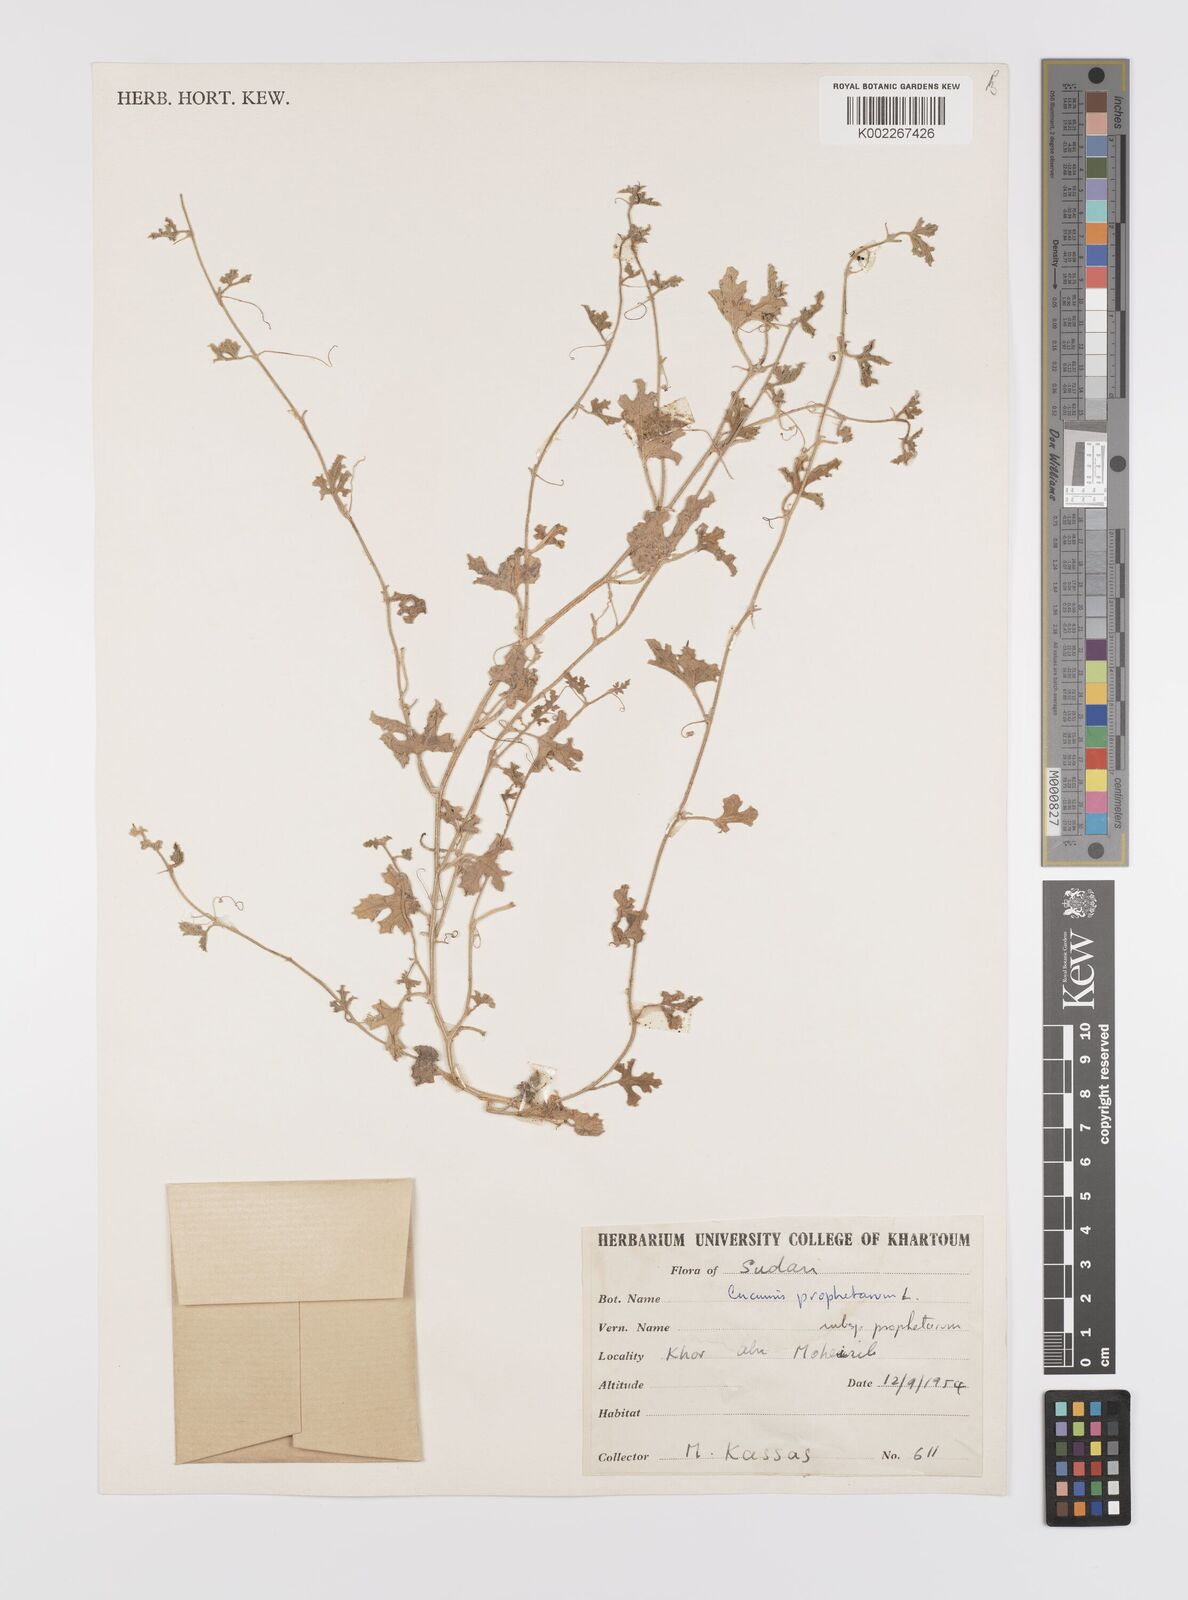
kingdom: Plantae
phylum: Tracheophyta
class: Magnoliopsida
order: Cucurbitales
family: Cucurbitaceae
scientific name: Cucurbitaceae
